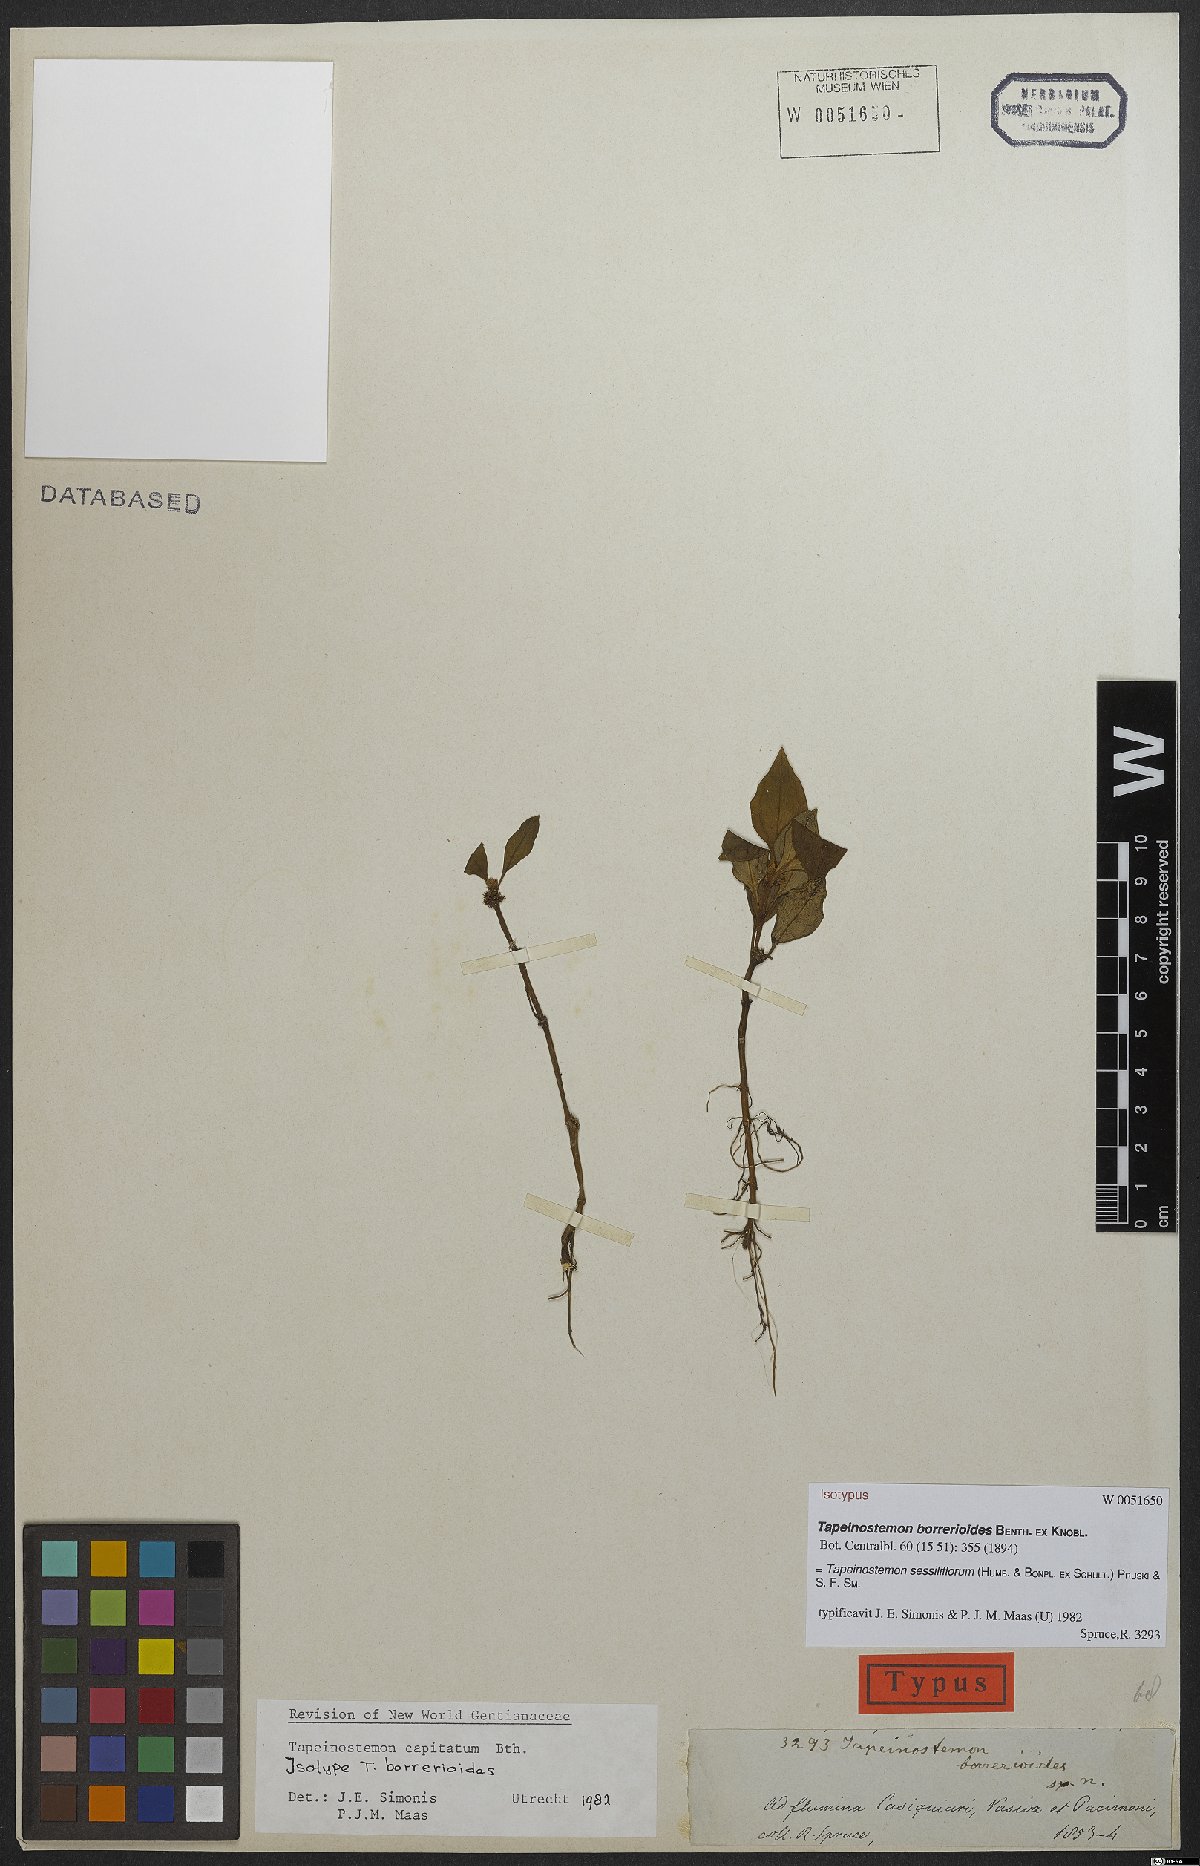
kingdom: Plantae
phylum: Tracheophyta
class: Magnoliopsida
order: Gentianales
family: Gentianaceae
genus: Tapeinostemon
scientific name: Tapeinostemon sessiliflorus
